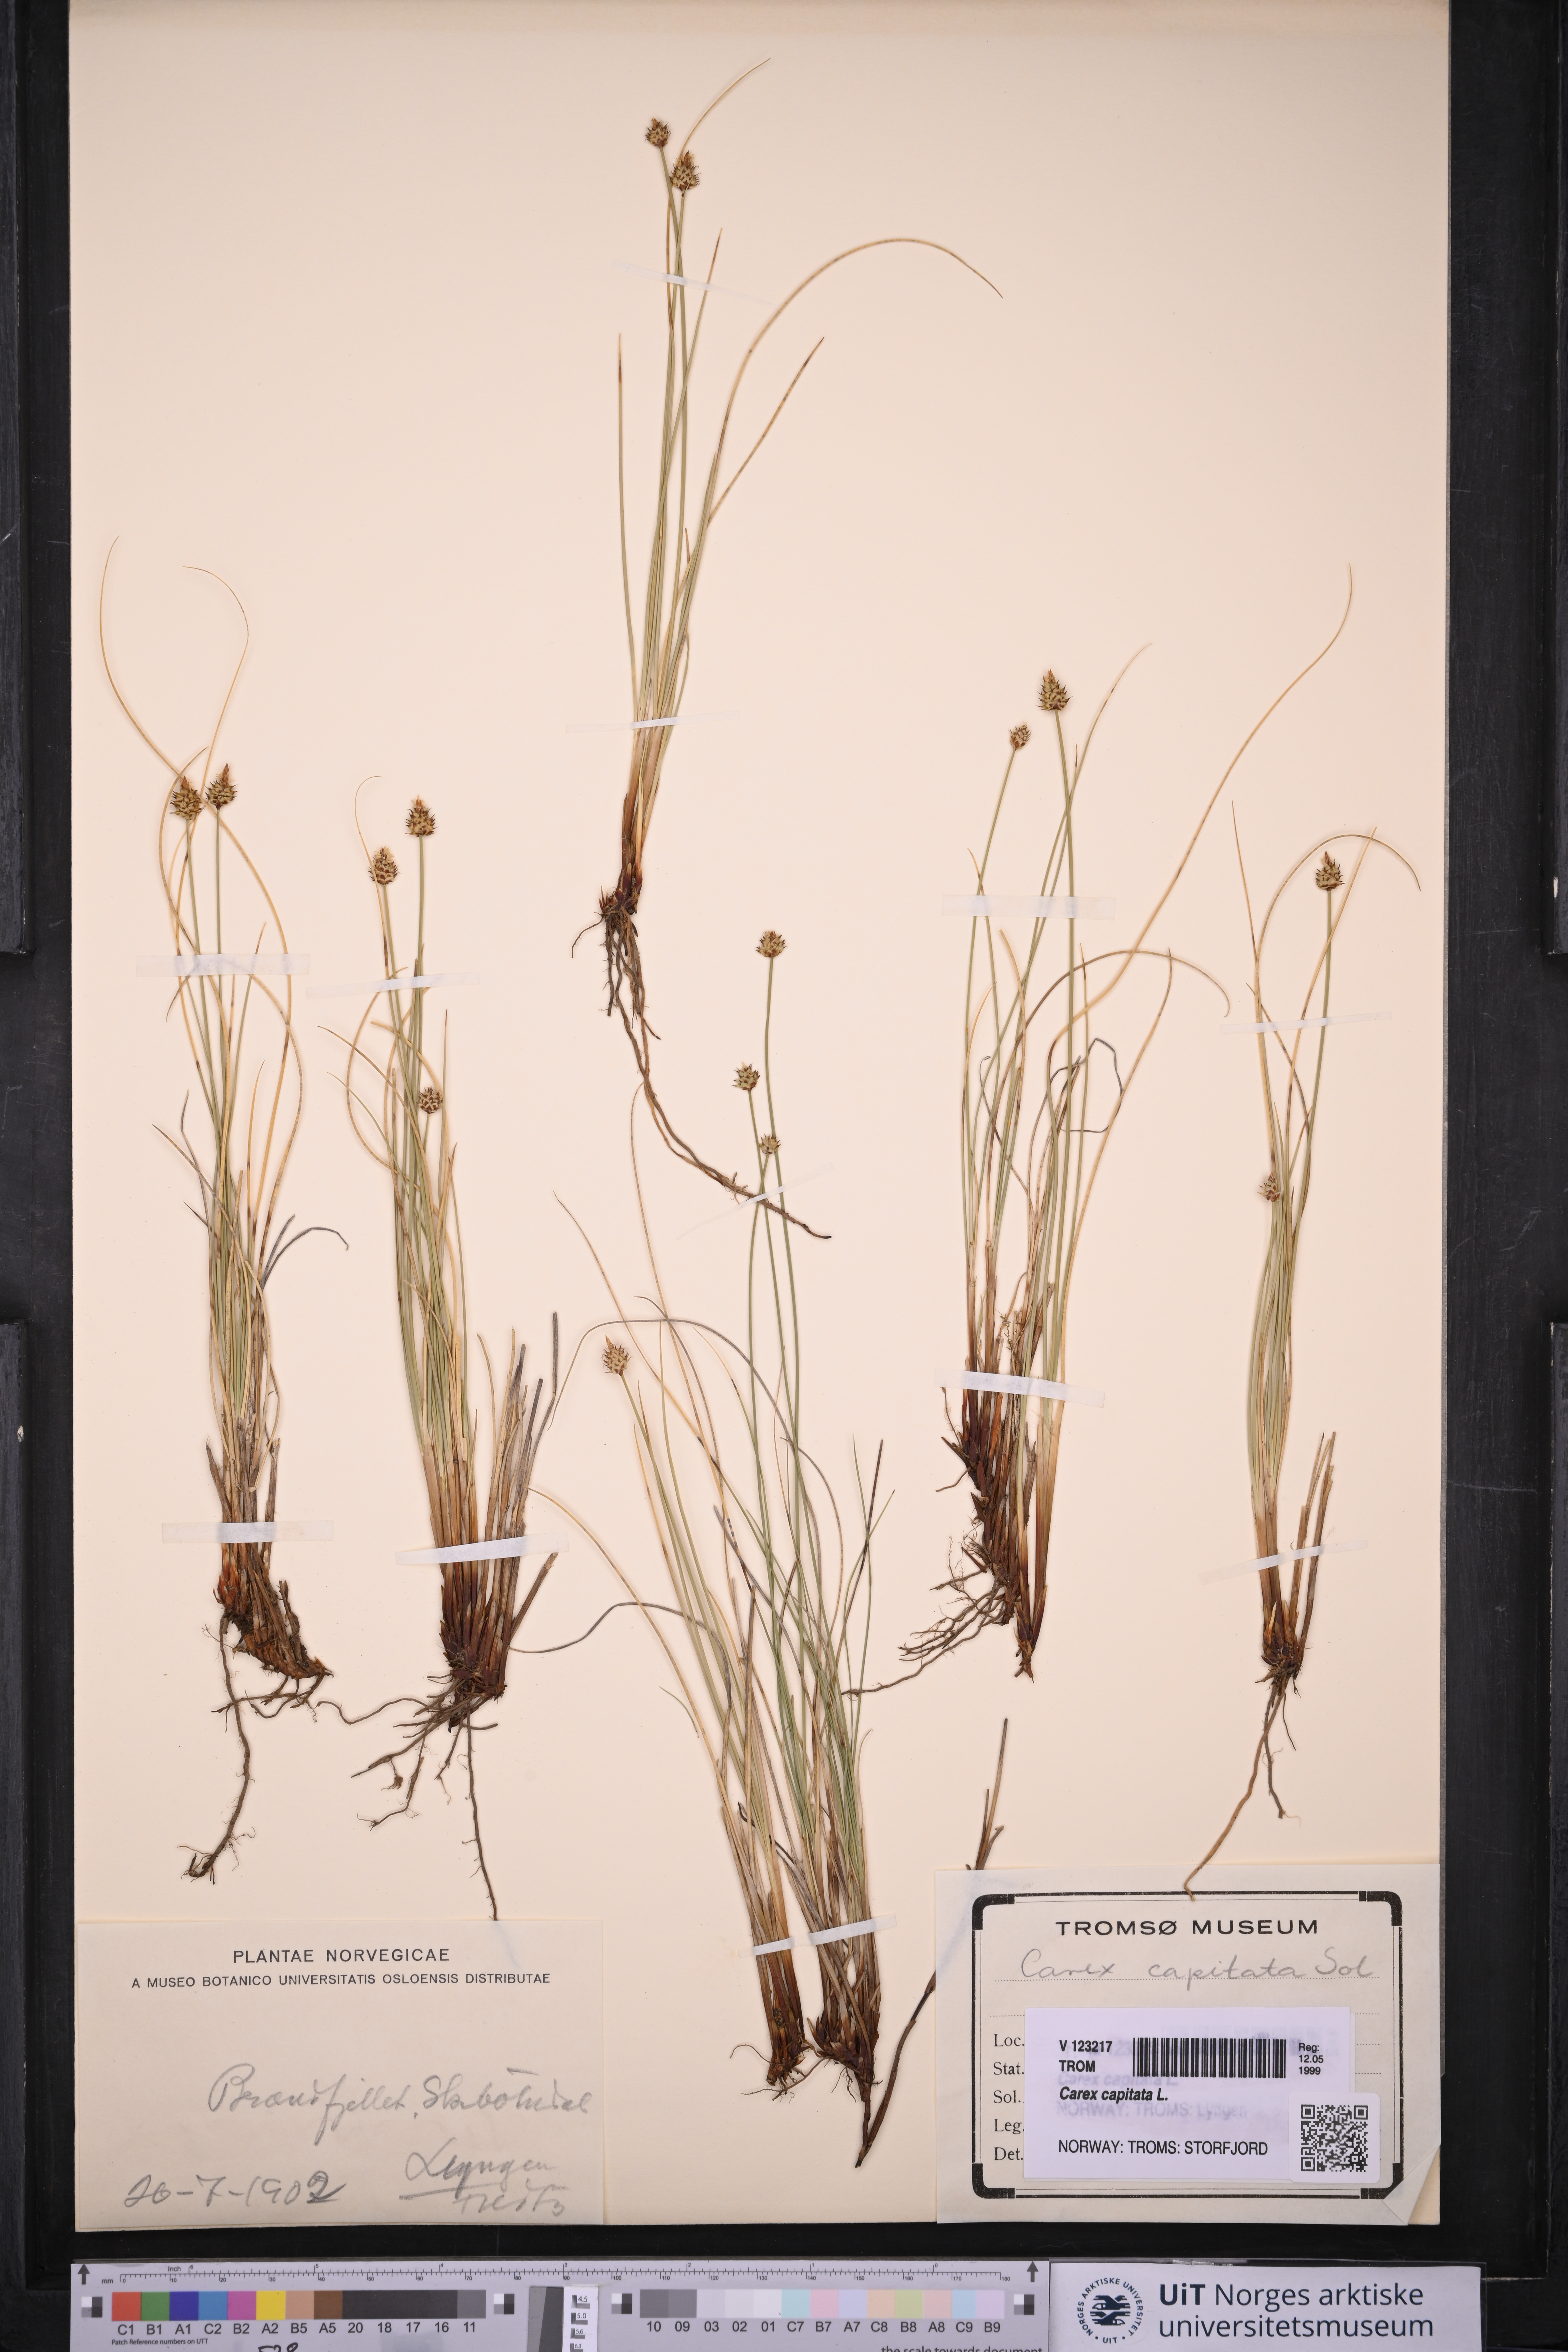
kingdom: Plantae
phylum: Tracheophyta
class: Liliopsida
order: Poales
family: Cyperaceae
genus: Carex
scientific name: Carex capitata
